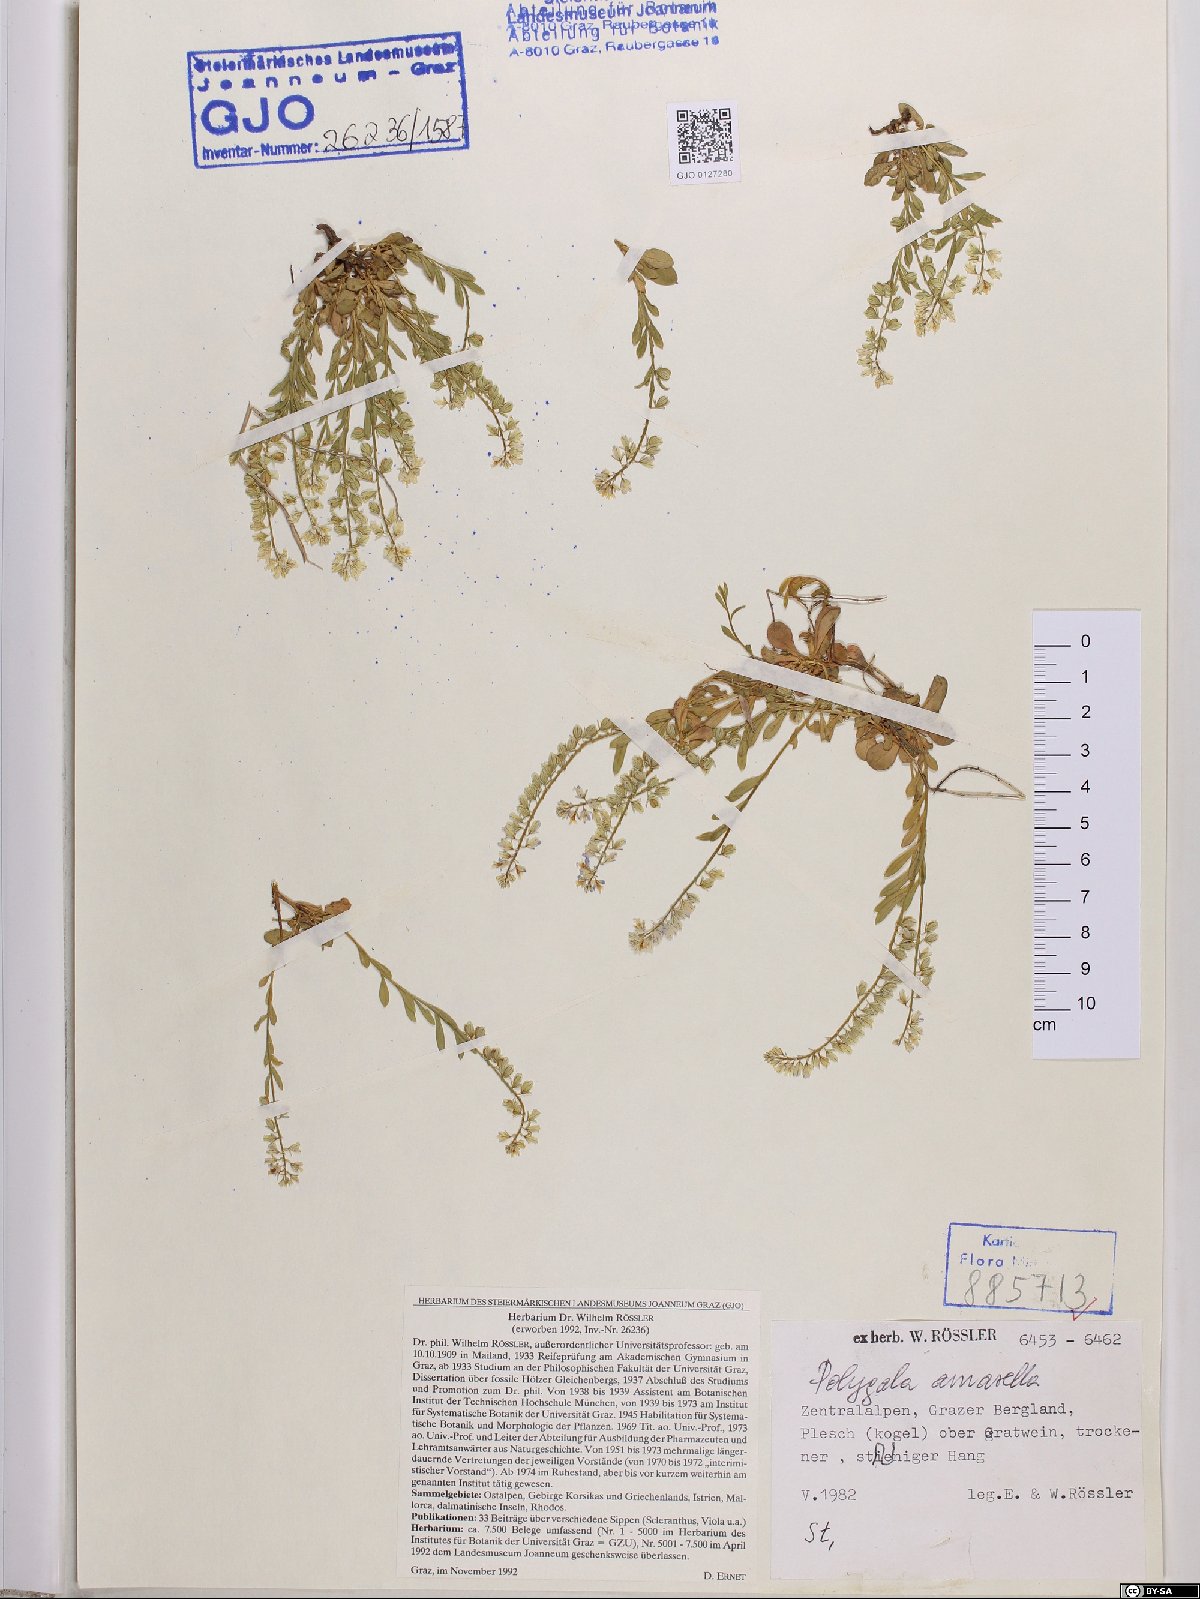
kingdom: Plantae
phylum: Tracheophyta
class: Magnoliopsida
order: Fabales
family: Polygalaceae
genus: Polygala
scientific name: Polygala amarella
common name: Dwarf milkwort
